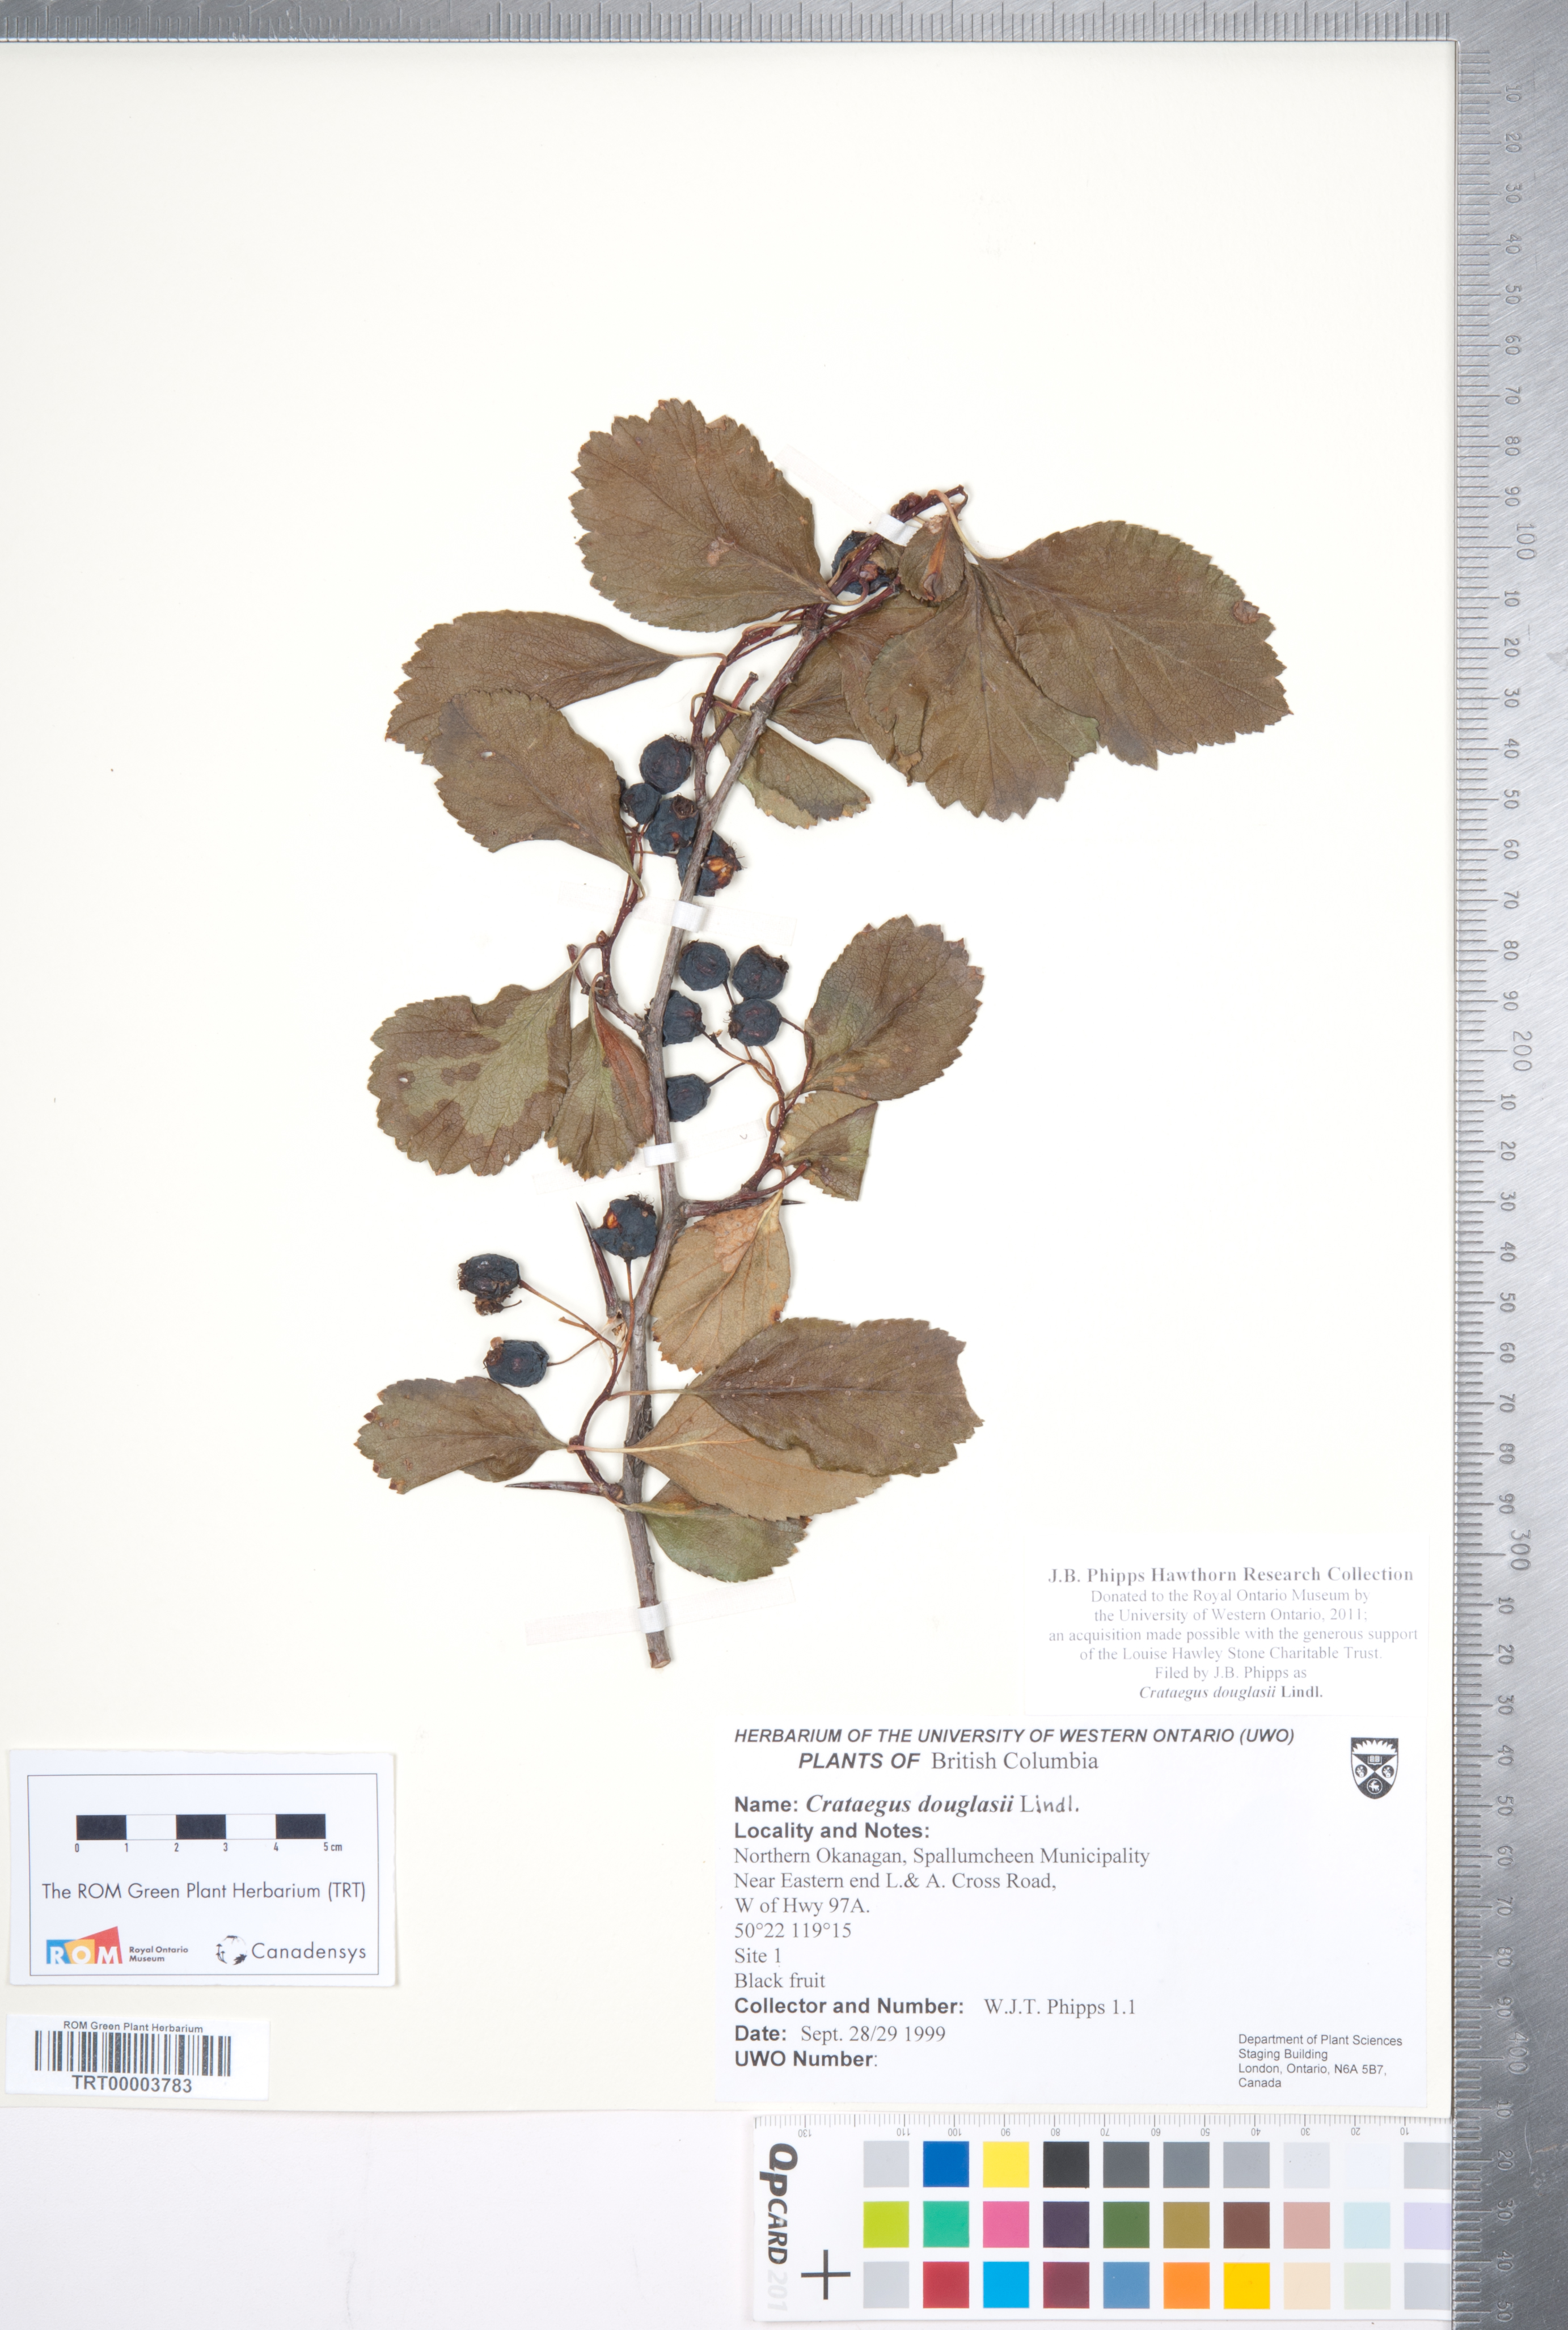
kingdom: Plantae
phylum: Tracheophyta
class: Magnoliopsida
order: Rosales
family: Rosaceae
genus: Crataegus
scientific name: Crataegus douglasii
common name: Black hawthorn
